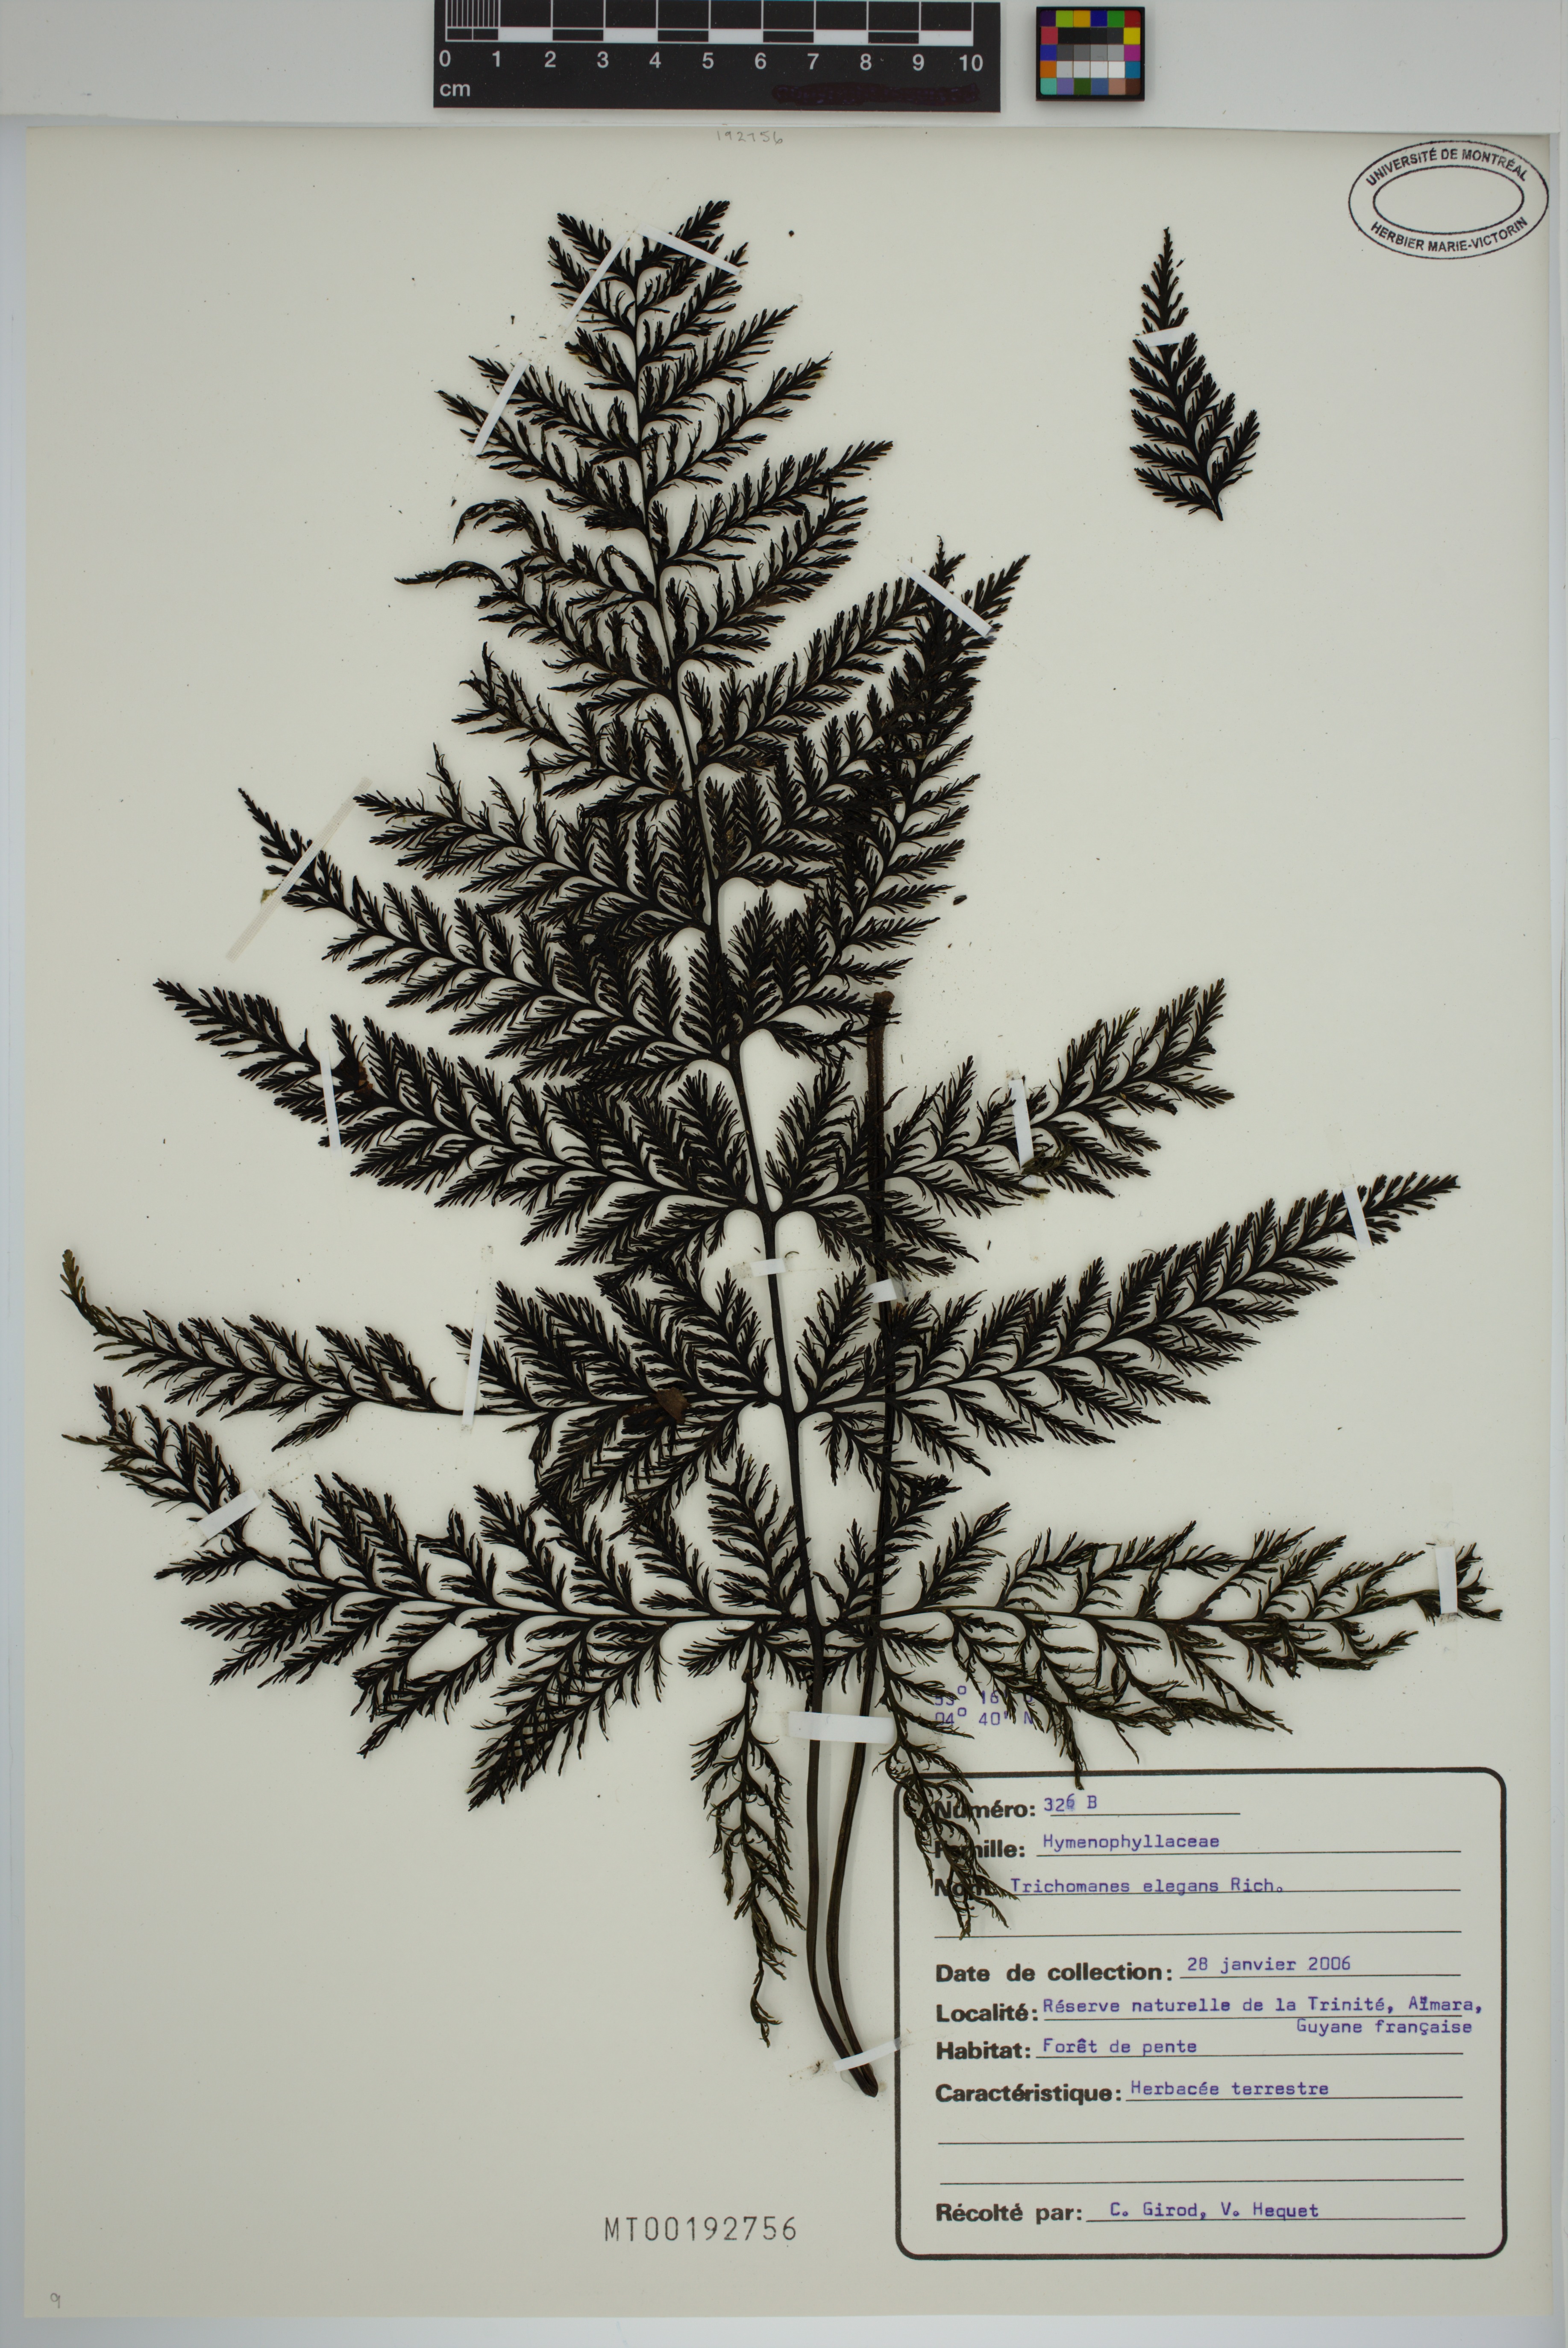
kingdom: Plantae
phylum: Tracheophyta
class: Polypodiopsida
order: Hymenophyllales
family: Hymenophyllaceae
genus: Trichomanes
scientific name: Trichomanes elegans
